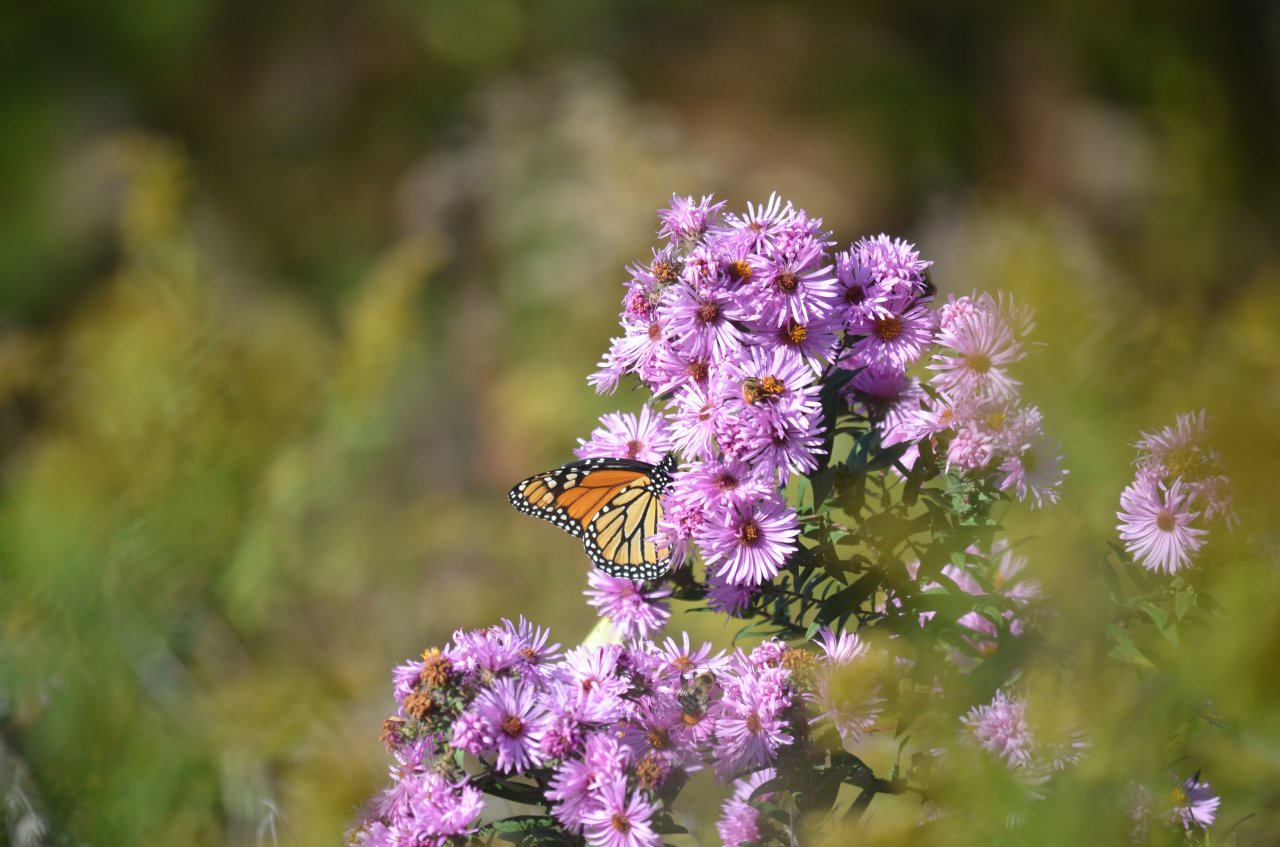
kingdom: Animalia
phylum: Arthropoda
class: Insecta
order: Lepidoptera
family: Nymphalidae
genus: Danaus
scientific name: Danaus plexippus
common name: Monarch
